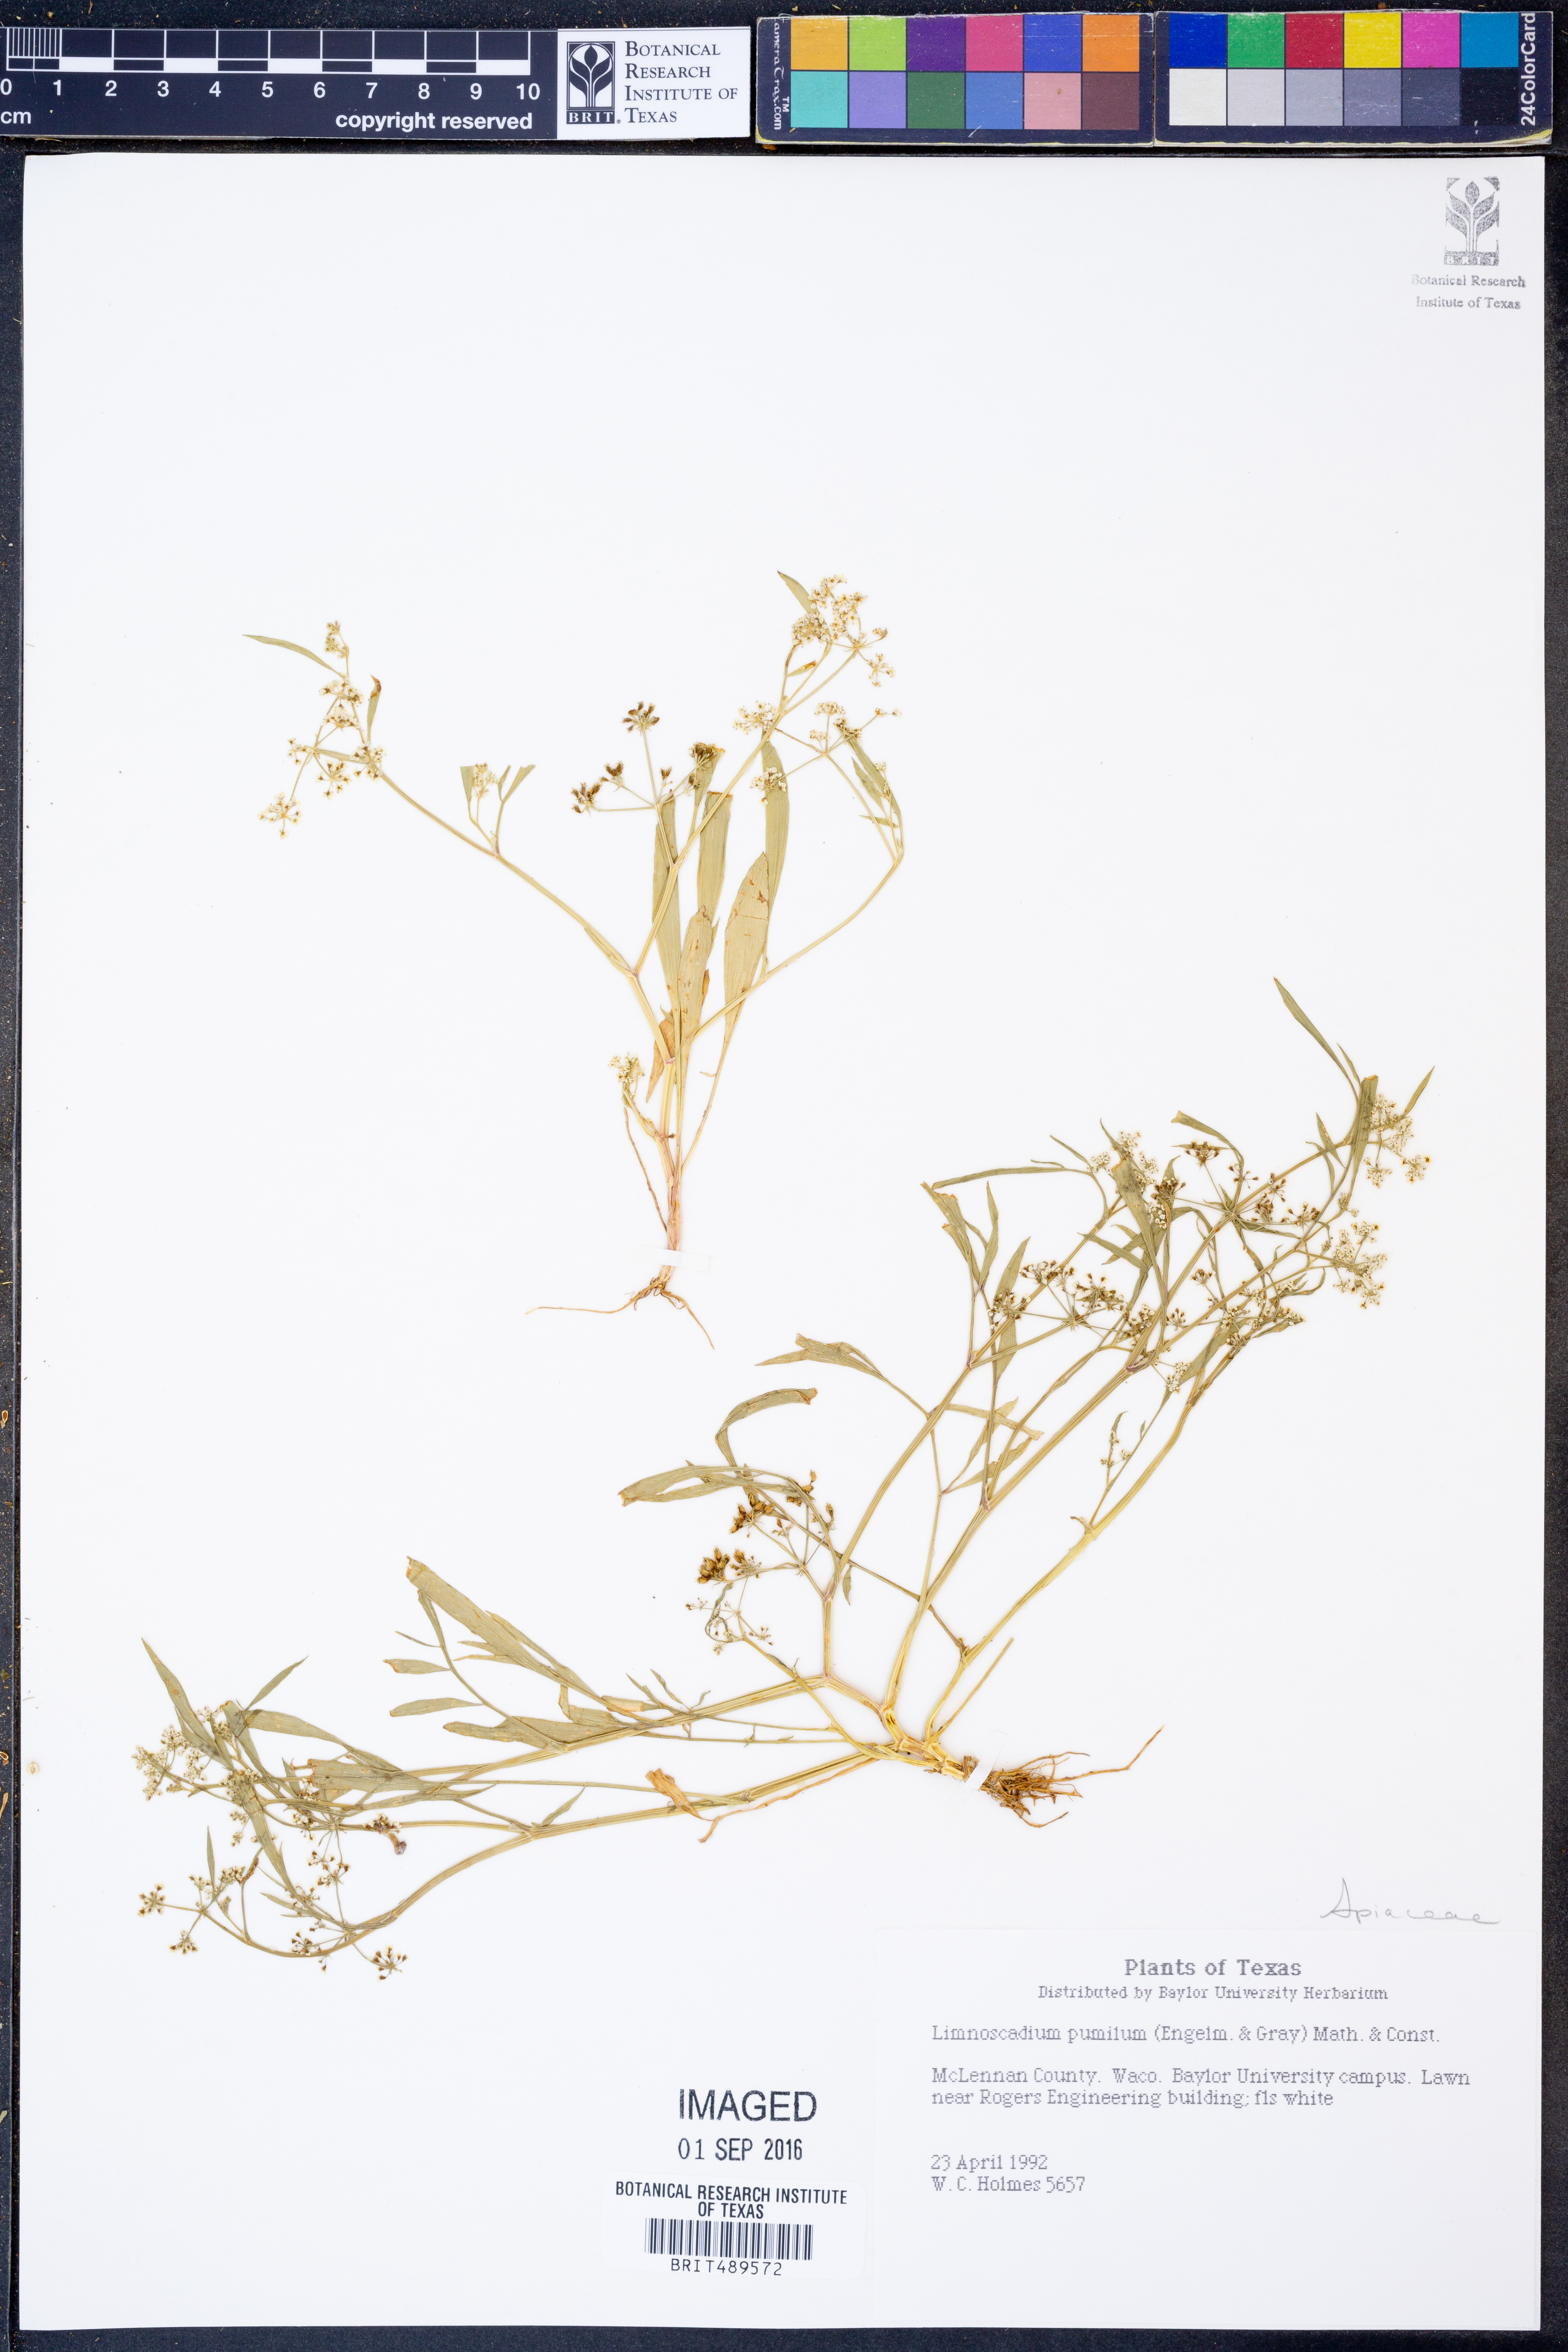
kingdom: Plantae
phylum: Tracheophyta
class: Magnoliopsida
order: Apiales
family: Apiaceae
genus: Limnosciadium
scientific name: Limnosciadium pinnatum
